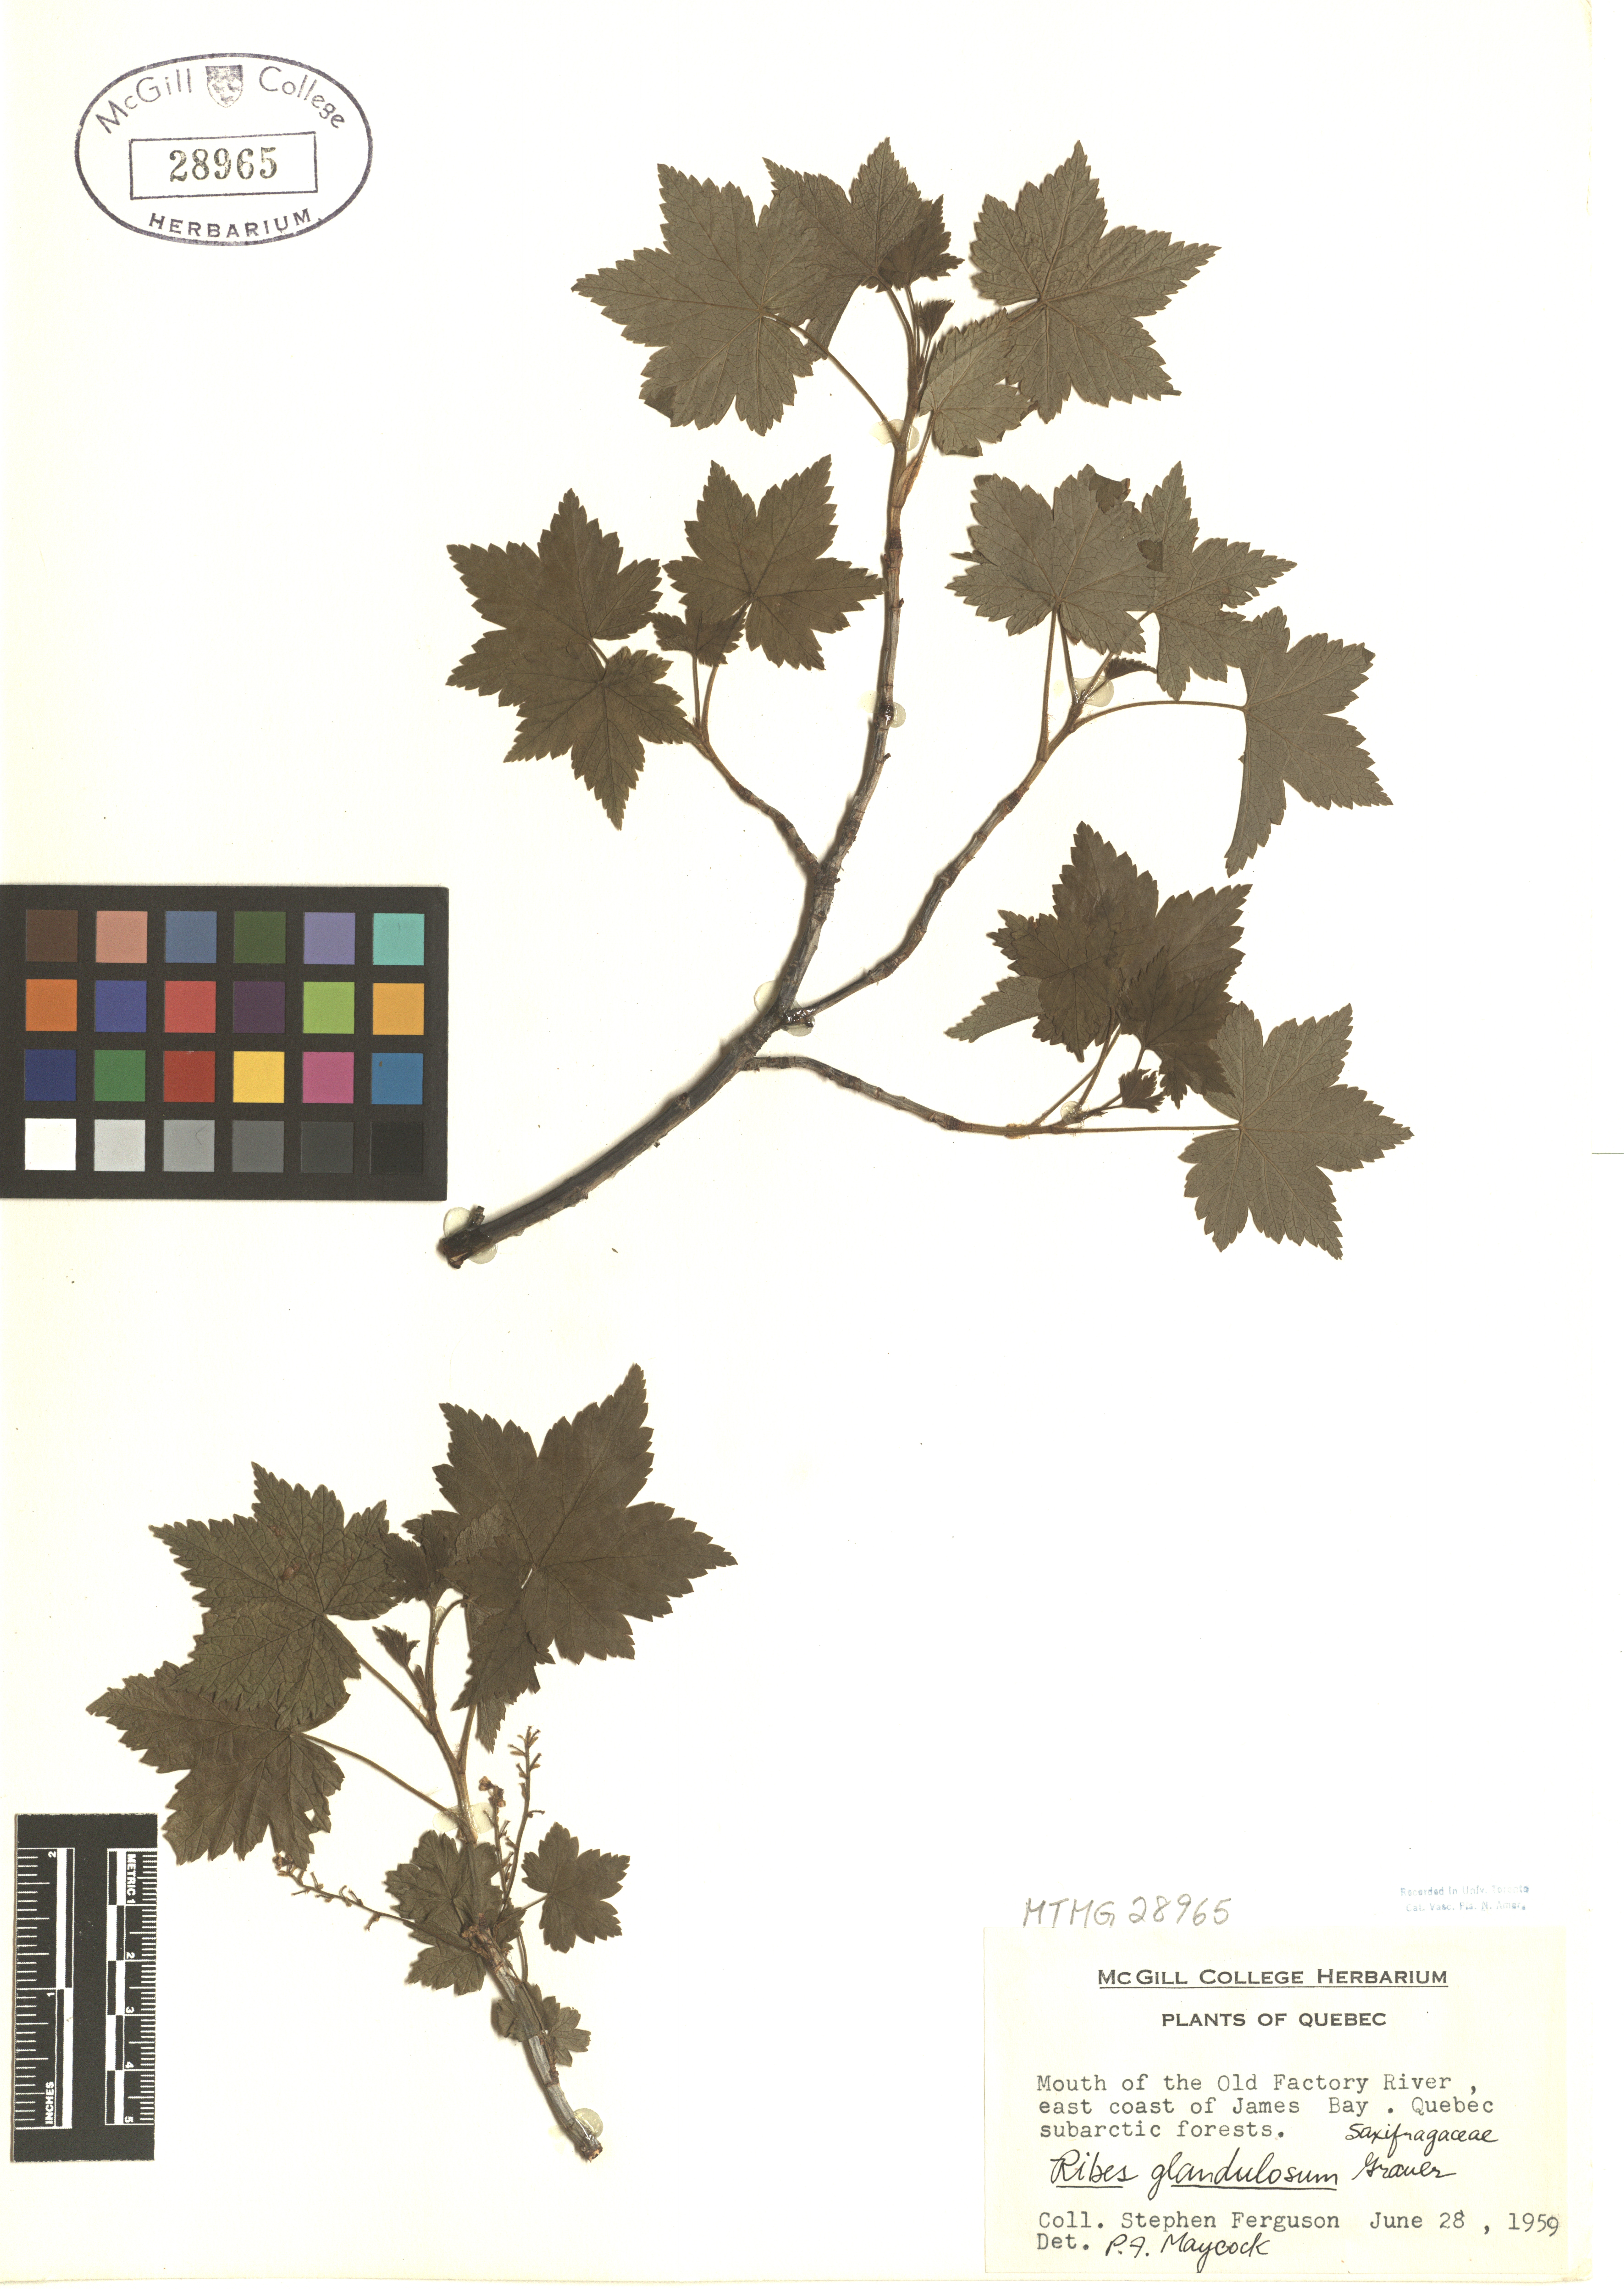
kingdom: Plantae
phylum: Tracheophyta
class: Magnoliopsida
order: Saxifragales
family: Grossulariaceae
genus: Ribes
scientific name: Ribes glandulosum
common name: Skunk currant
